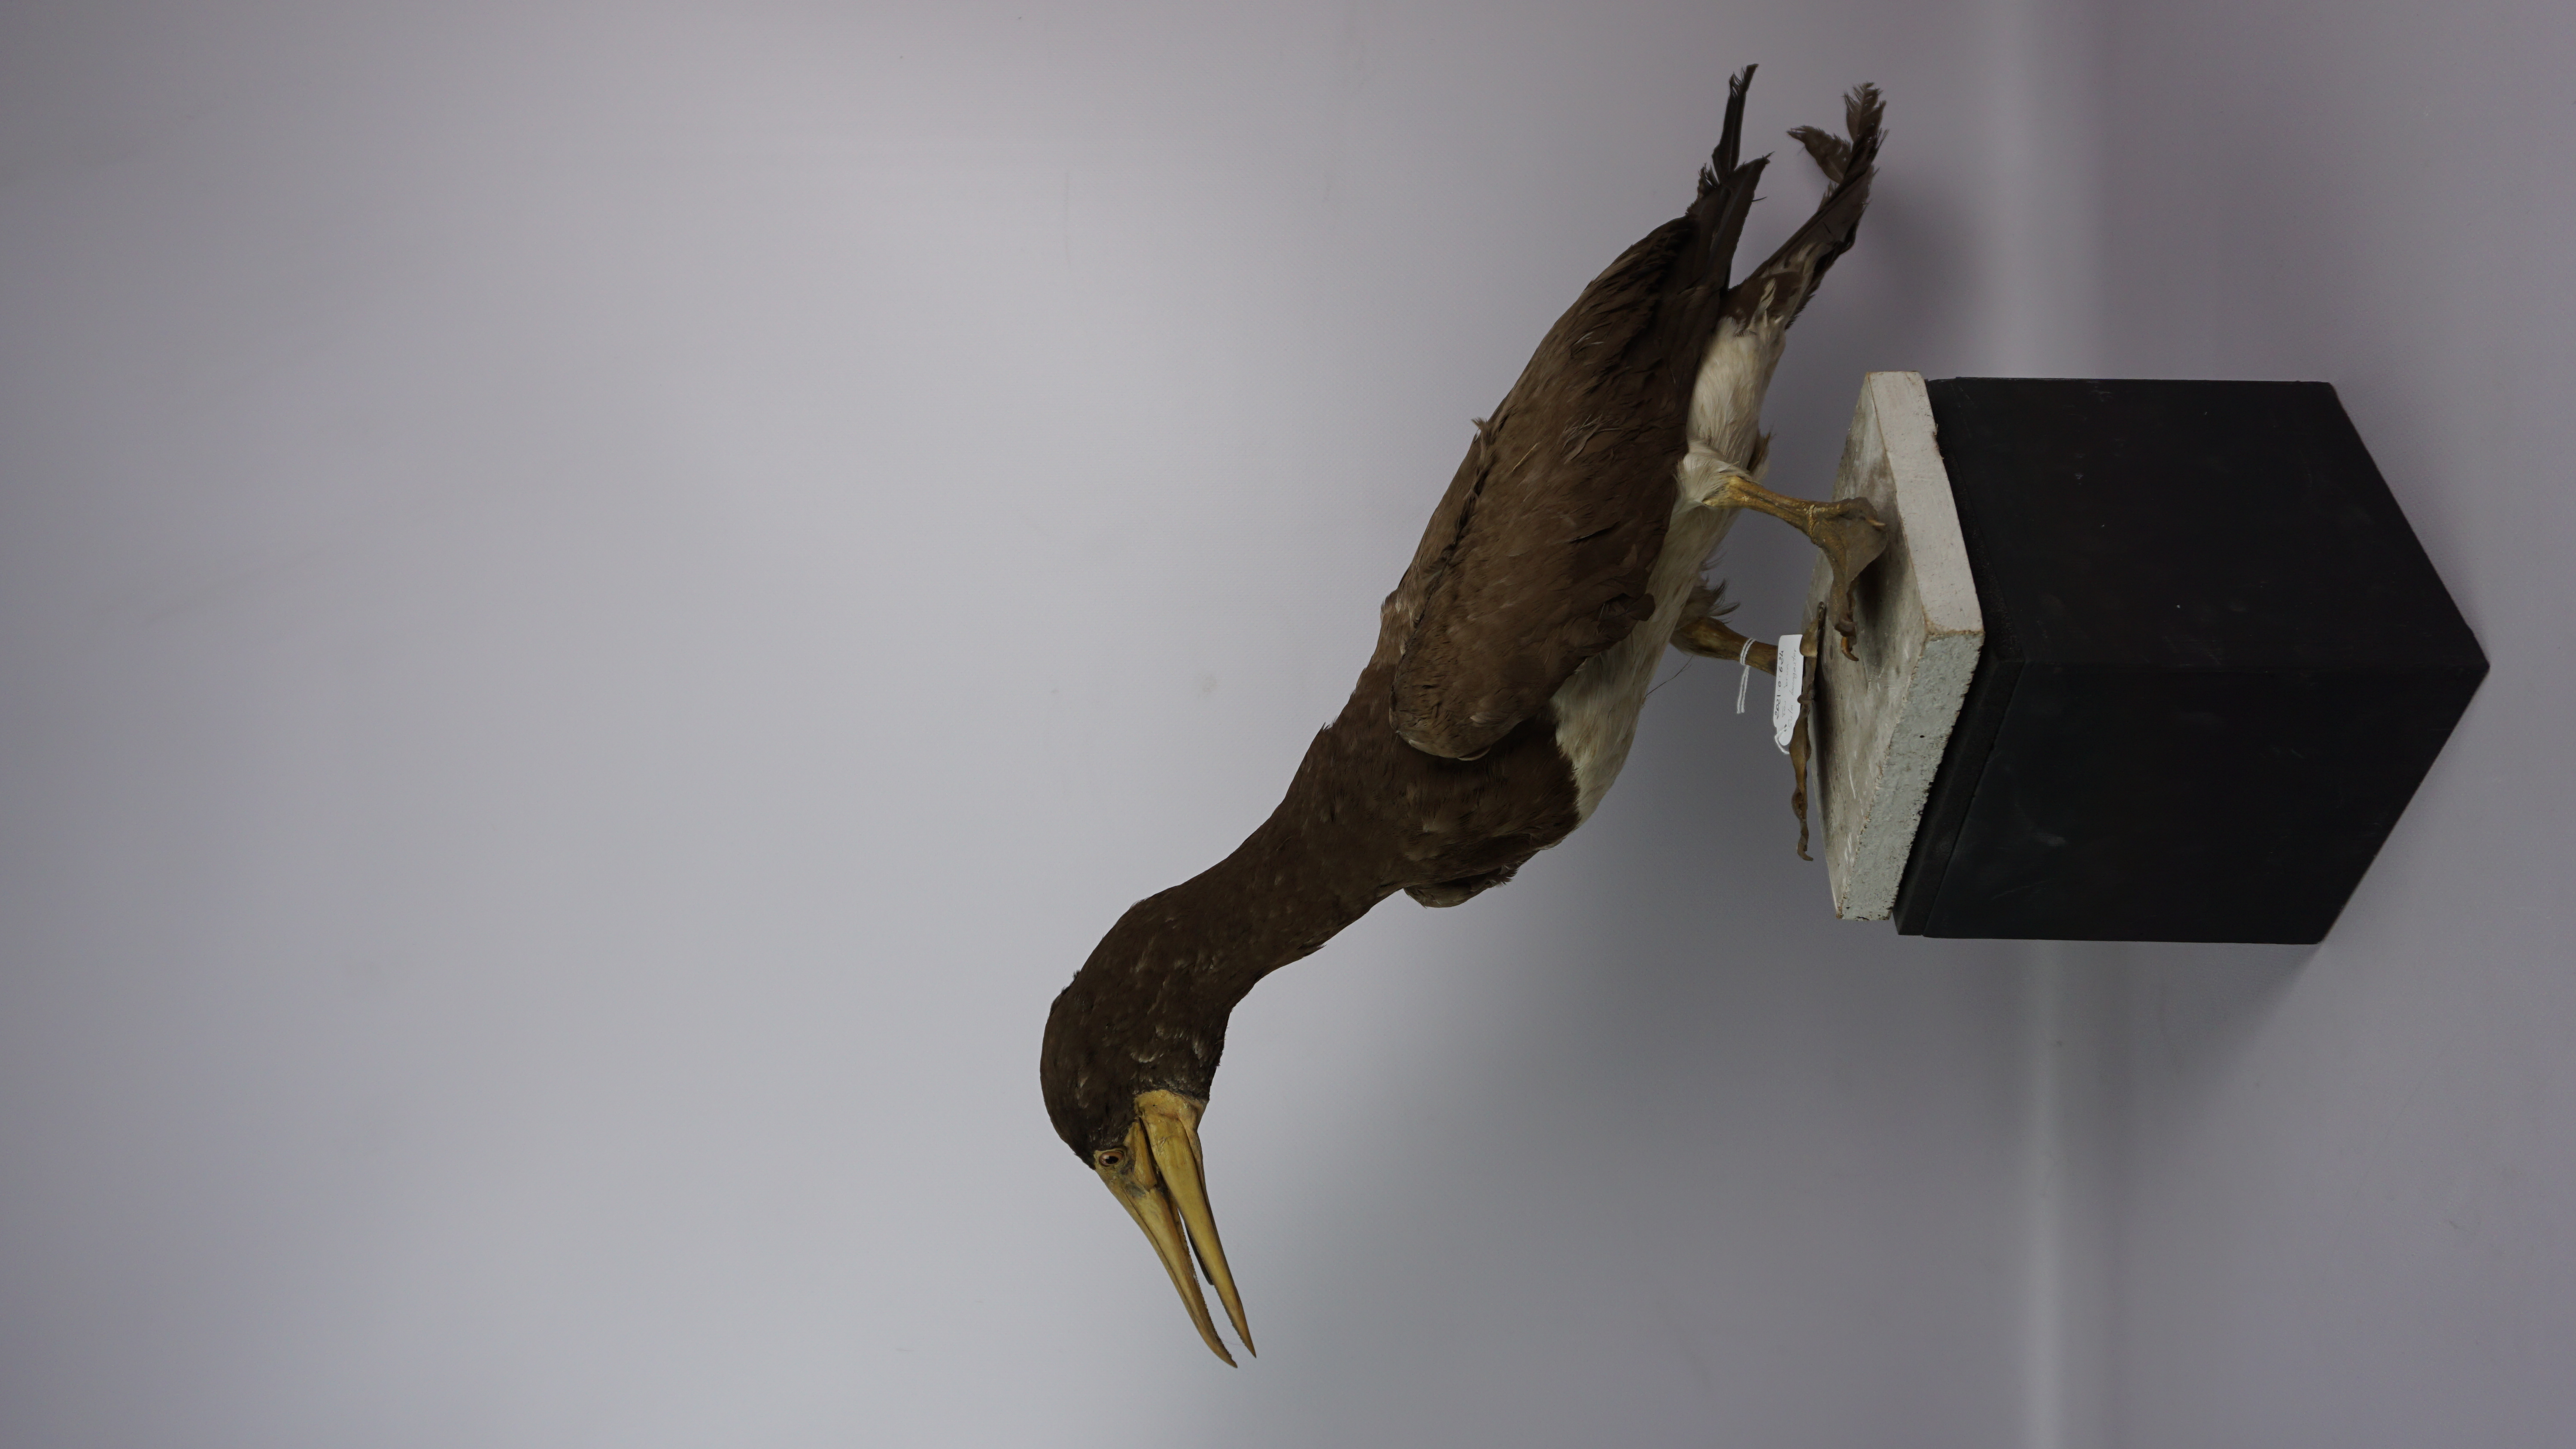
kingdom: Animalia
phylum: Chordata
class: Aves
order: Suliformes
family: Sulidae
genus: Sula
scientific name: Sula leucogaster
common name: Brown booby
